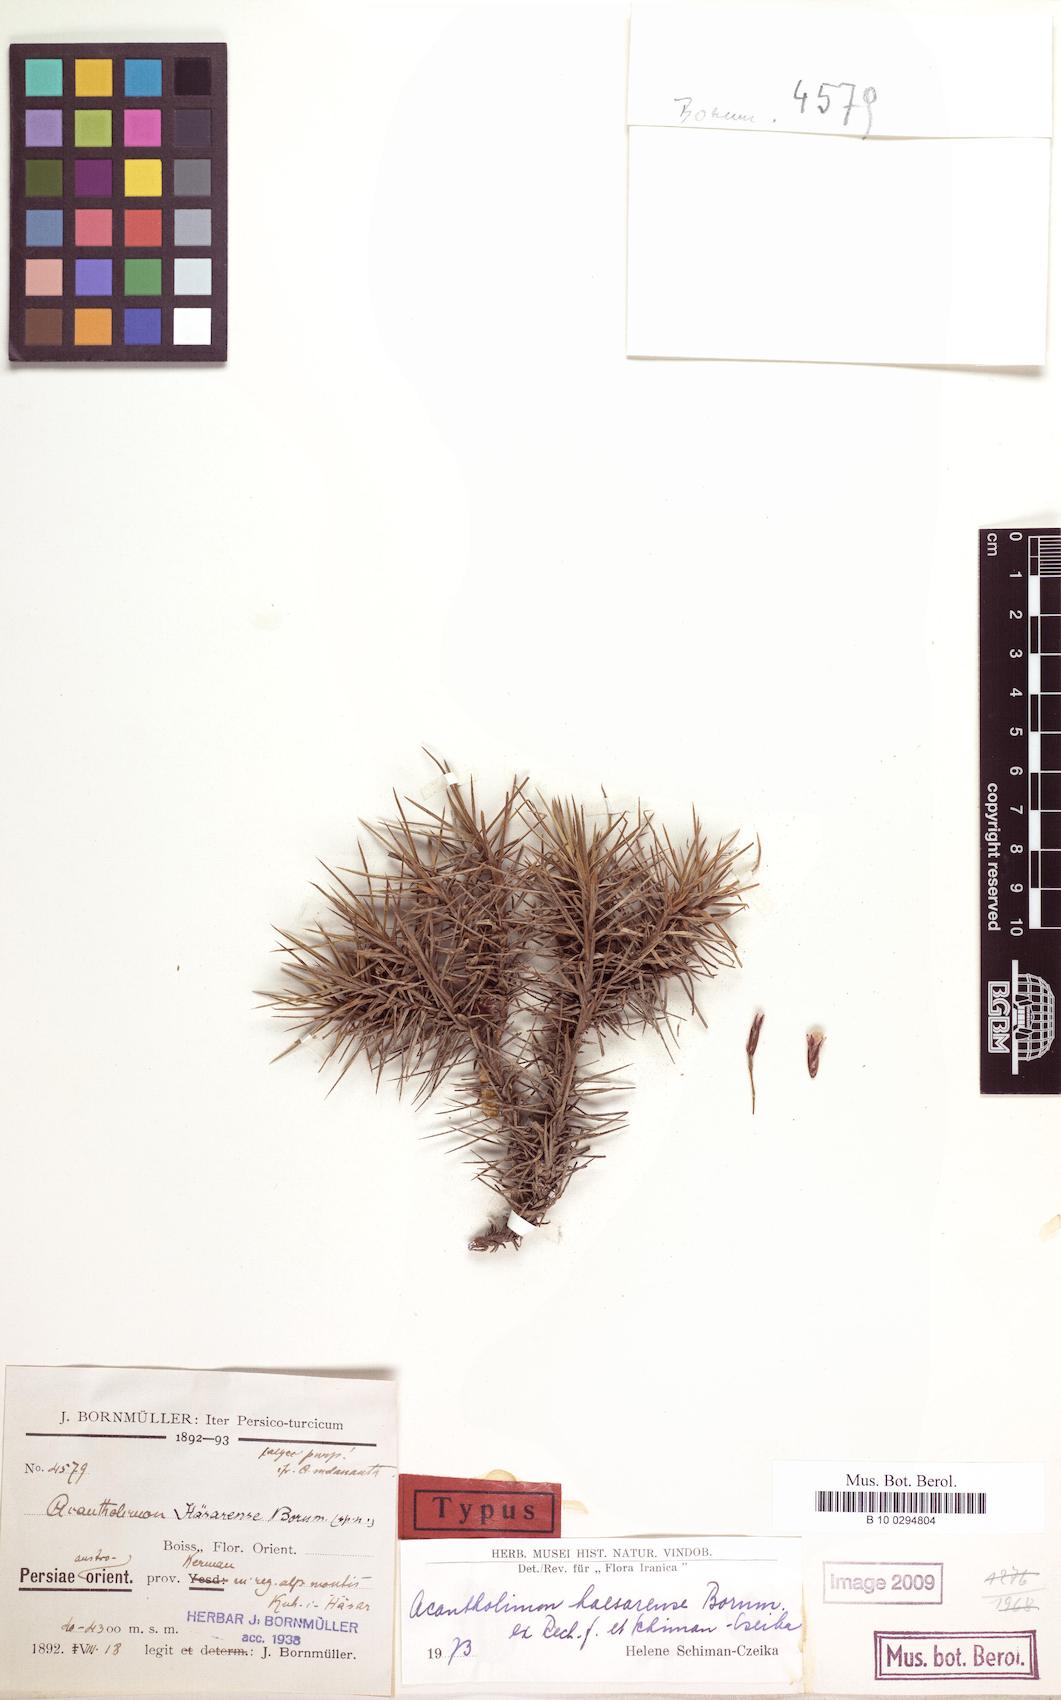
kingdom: Plantae
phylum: Tracheophyta
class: Magnoliopsida
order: Caryophyllales
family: Plumbaginaceae
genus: Acantholimon
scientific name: Acantholimon haesarensis
